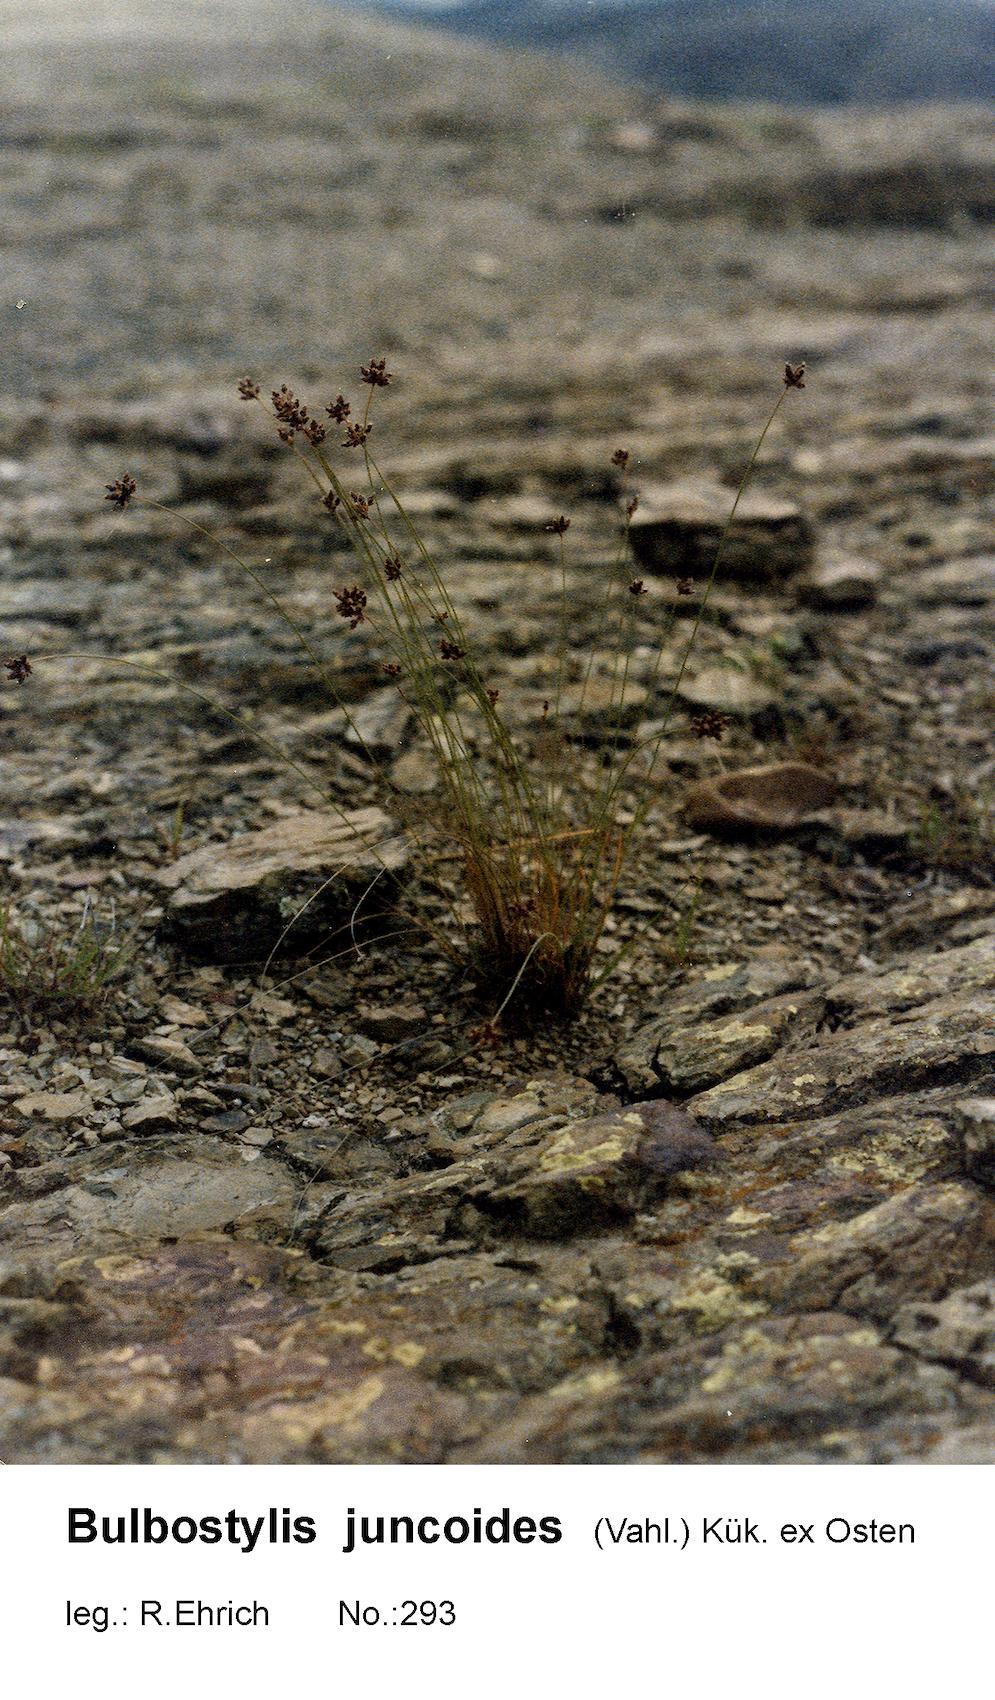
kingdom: Plantae
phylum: Tracheophyta
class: Liliopsida
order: Poales
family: Cyperaceae
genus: Bulbostylis
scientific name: Bulbostylis juncoides
